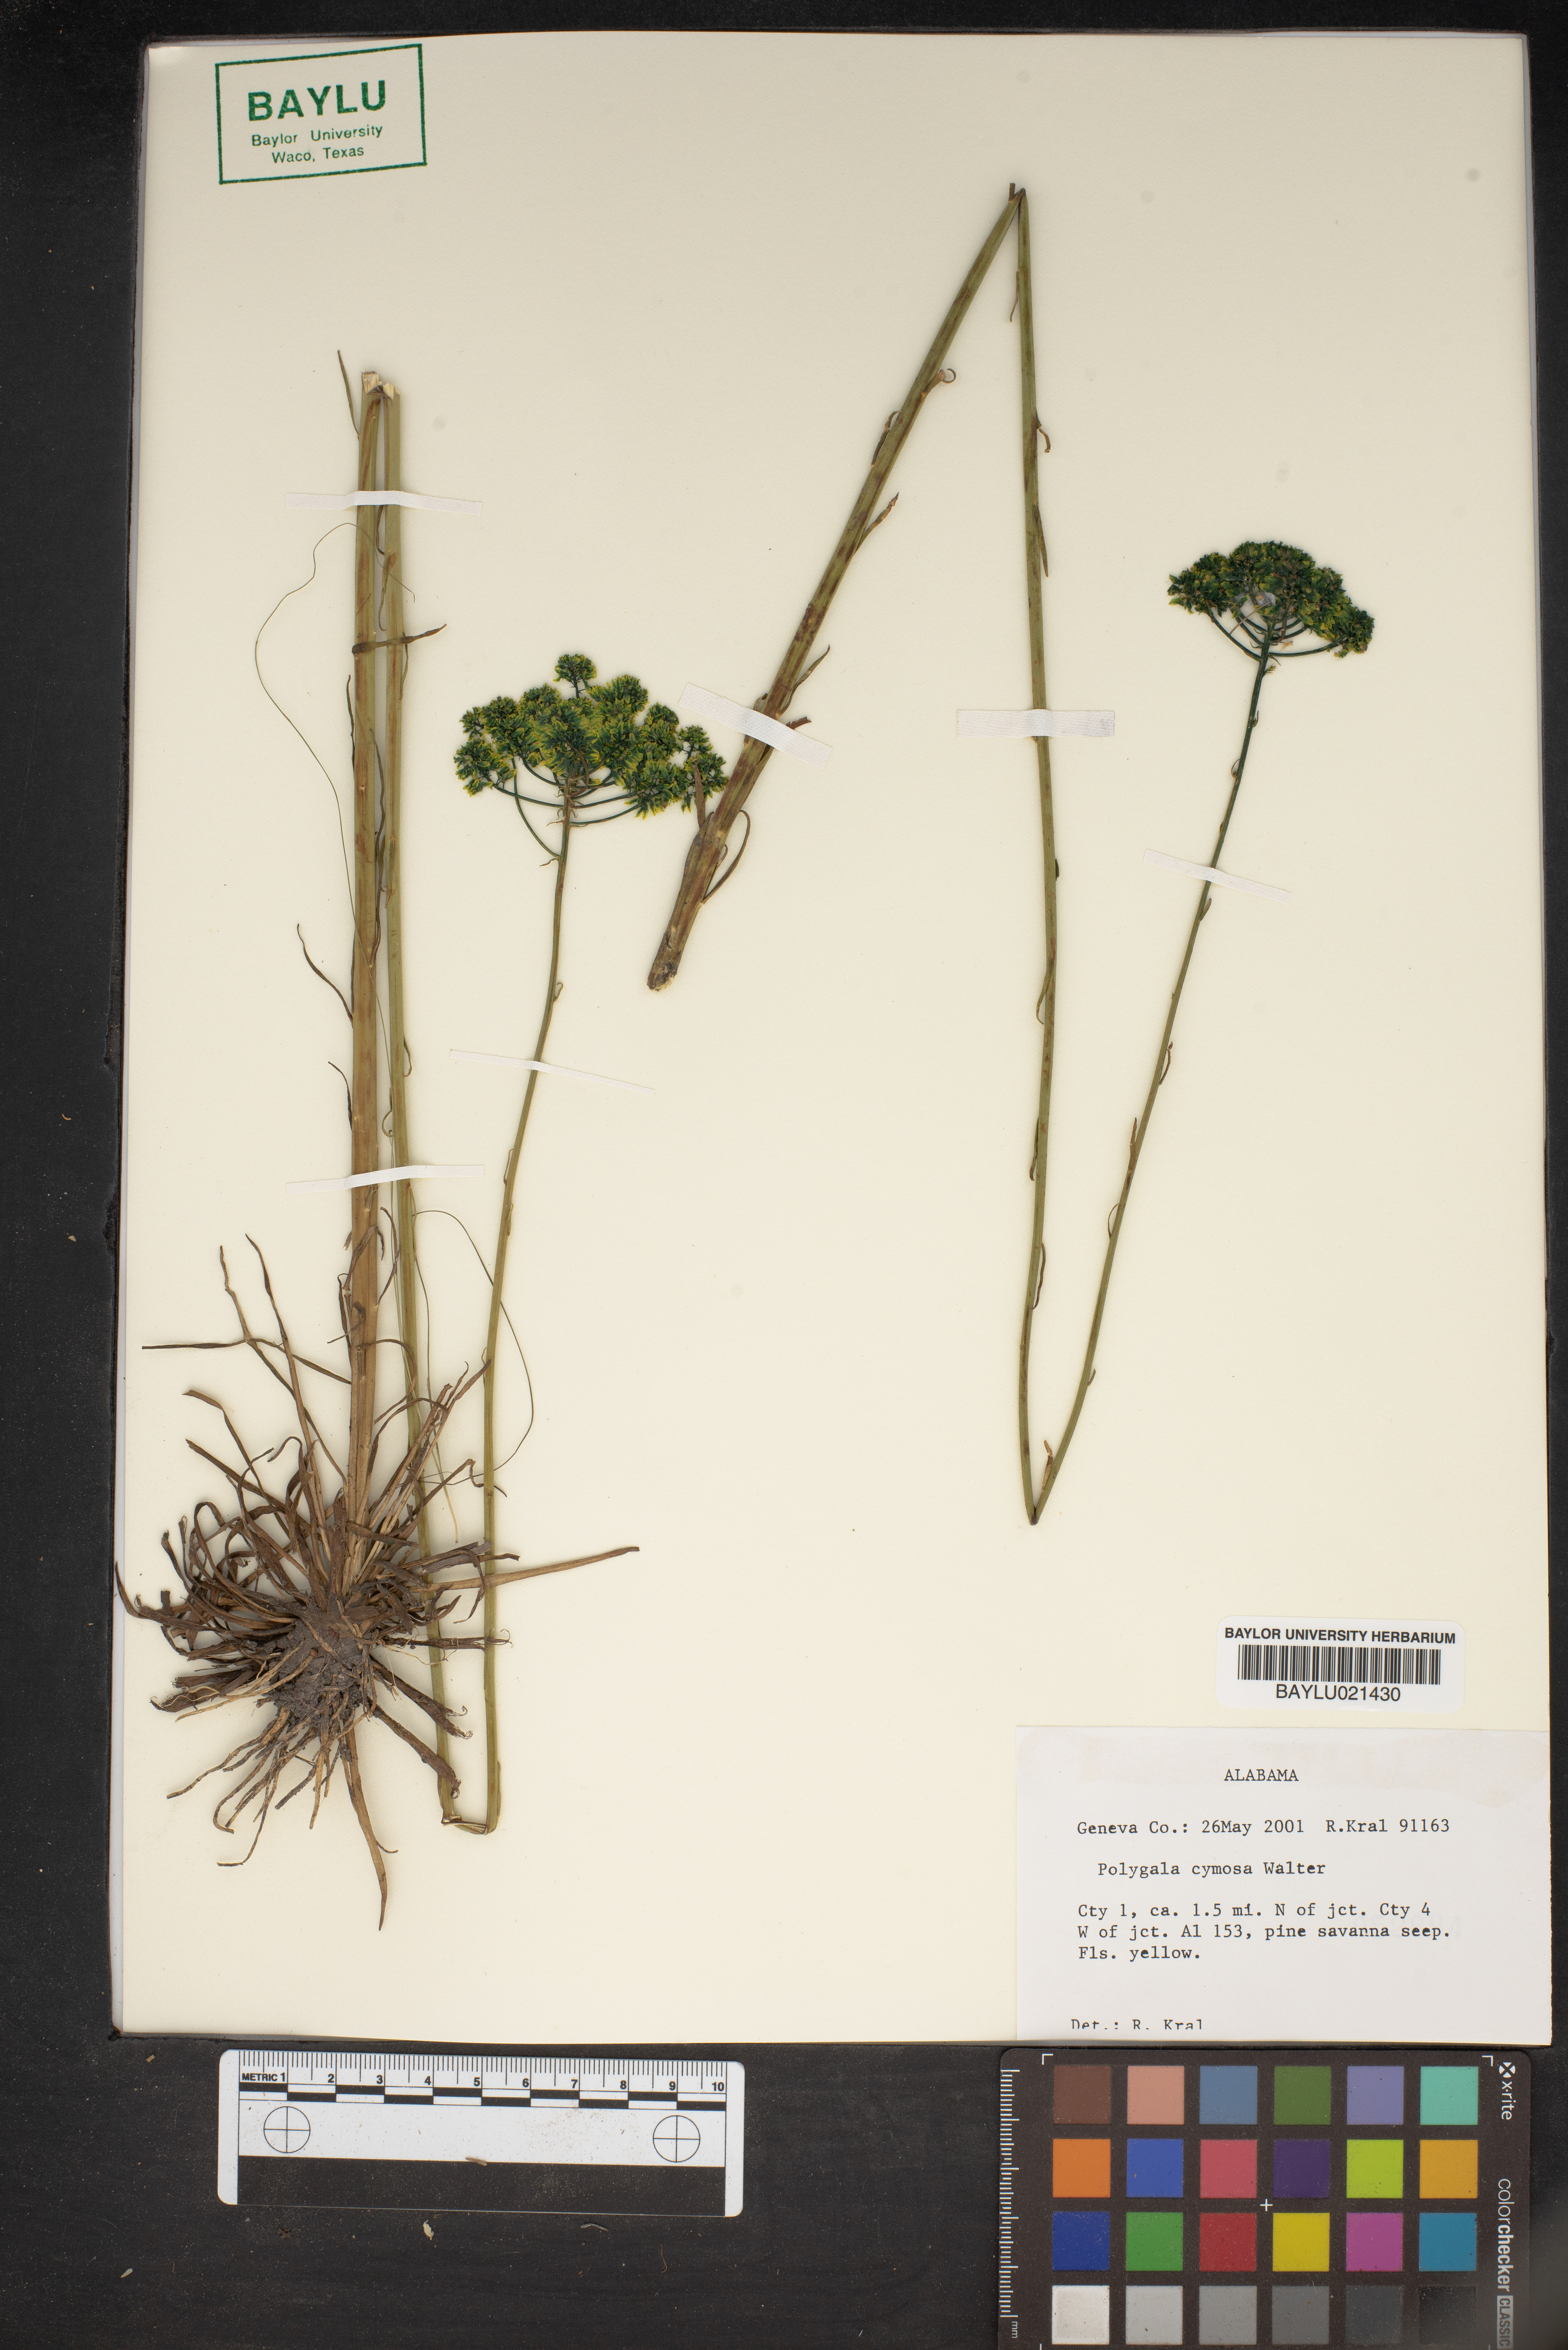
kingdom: Plantae
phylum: Tracheophyta
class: Magnoliopsida
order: Fabales
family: Polygalaceae
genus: Polygala
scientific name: Polygala cymosa
